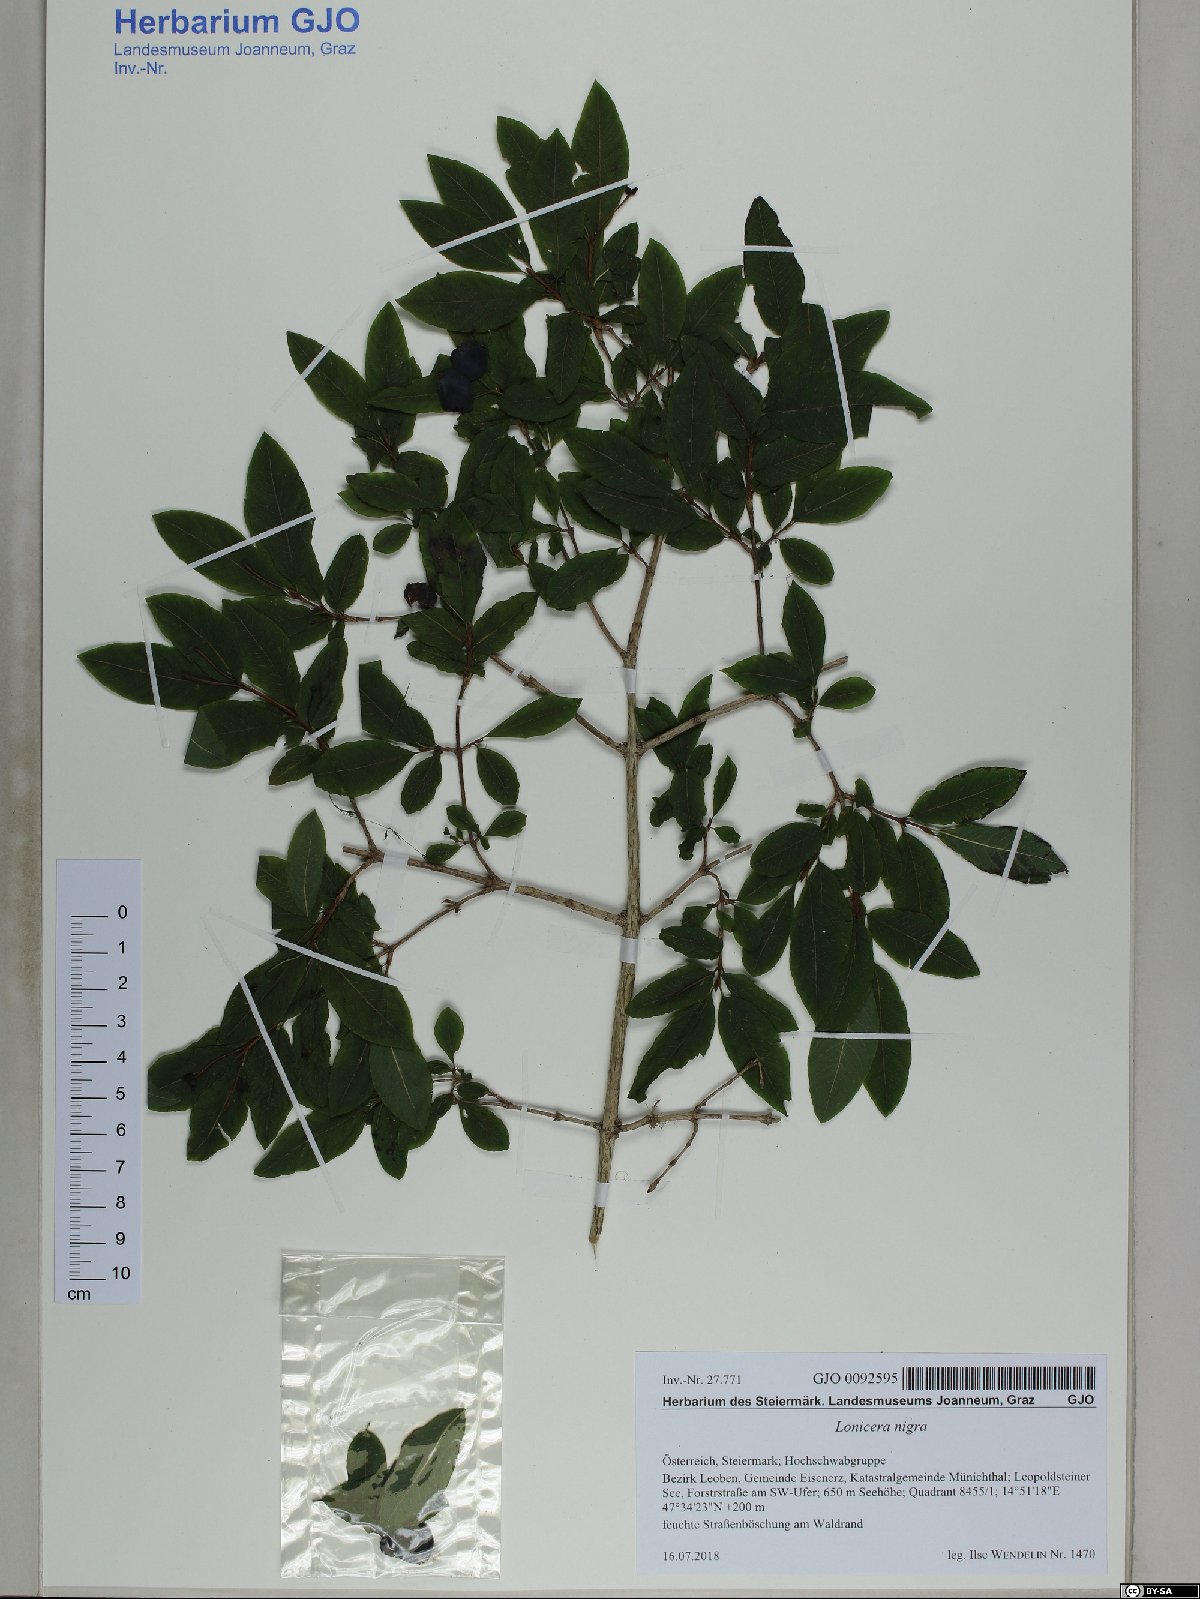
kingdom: Plantae
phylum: Tracheophyta
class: Magnoliopsida
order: Dipsacales
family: Caprifoliaceae
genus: Lonicera
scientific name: Lonicera nigra
